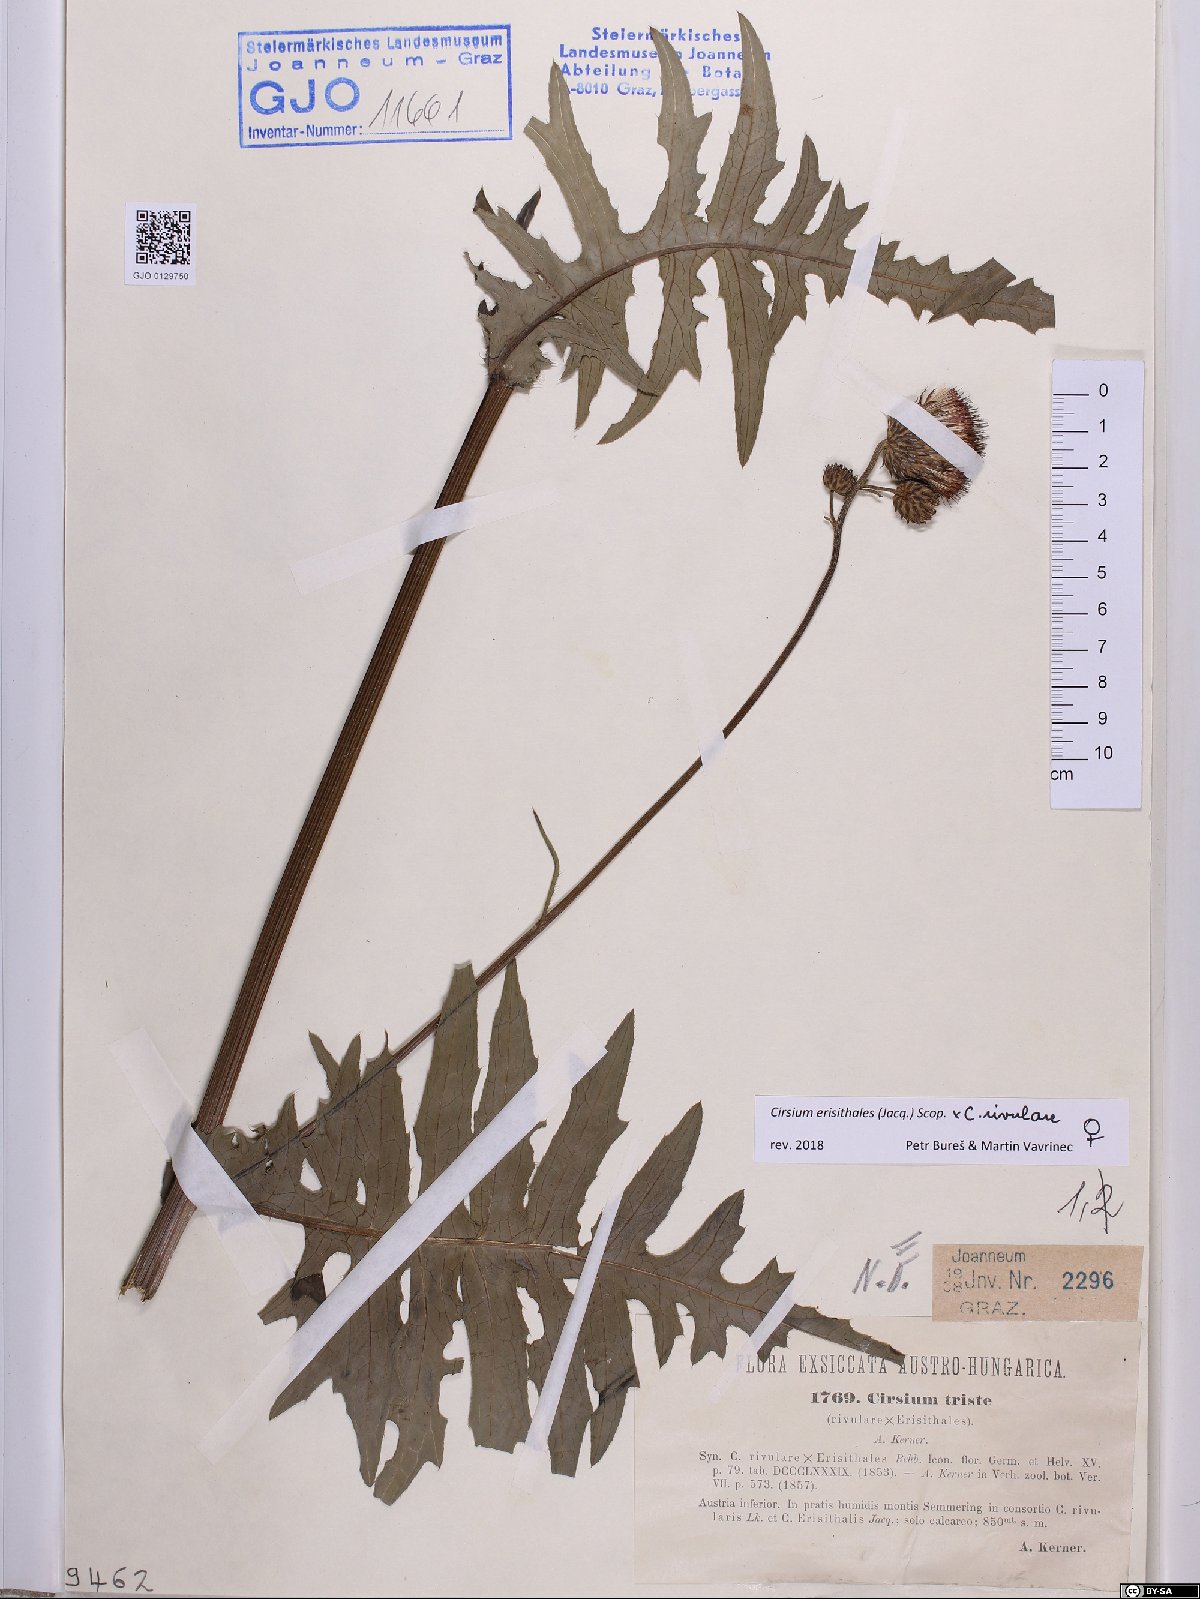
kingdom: Plantae
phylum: Tracheophyta
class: Magnoliopsida
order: Asterales
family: Asteraceae
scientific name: Asteraceae
